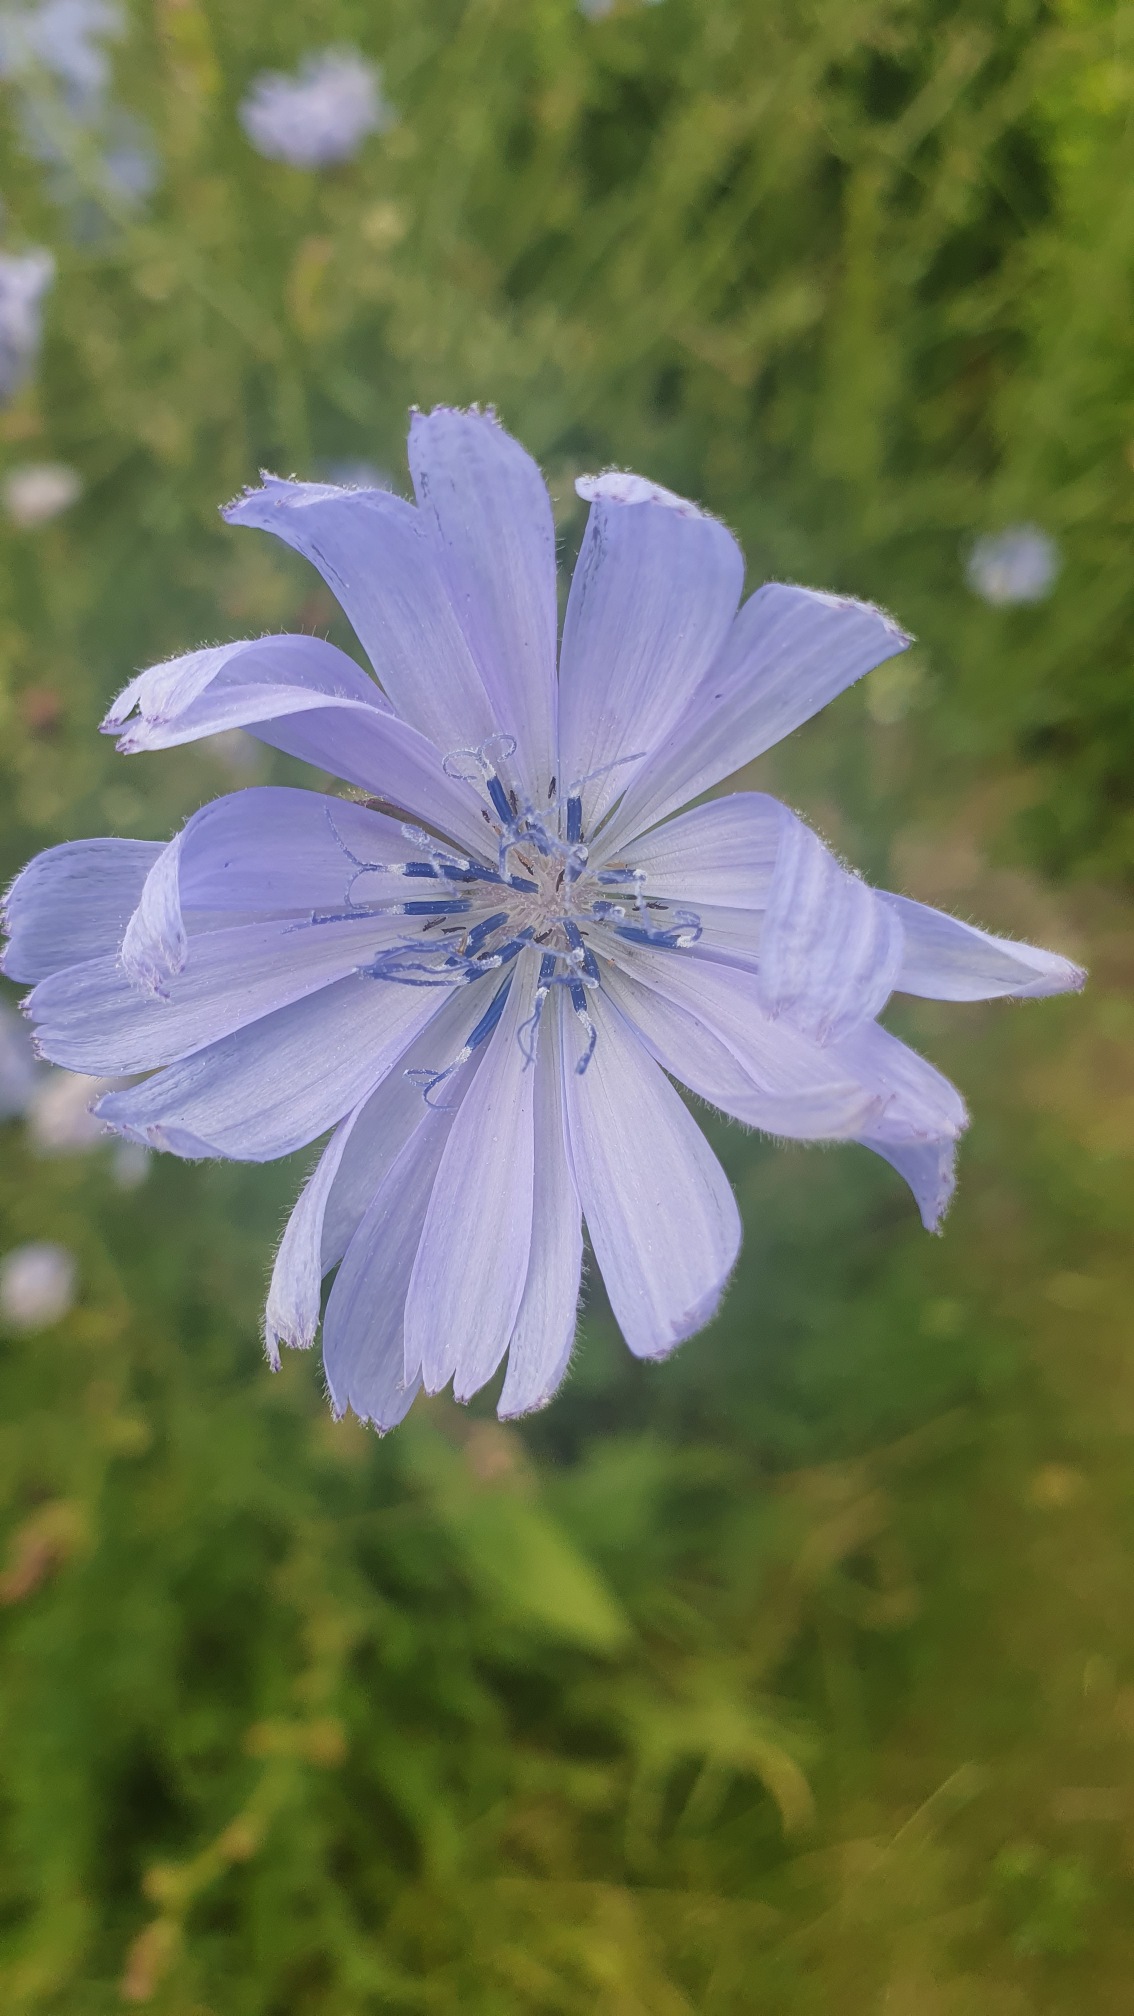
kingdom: Plantae
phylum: Tracheophyta
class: Magnoliopsida
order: Asterales
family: Asteraceae
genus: Cichorium
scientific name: Cichorium intybus
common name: Cikorie
